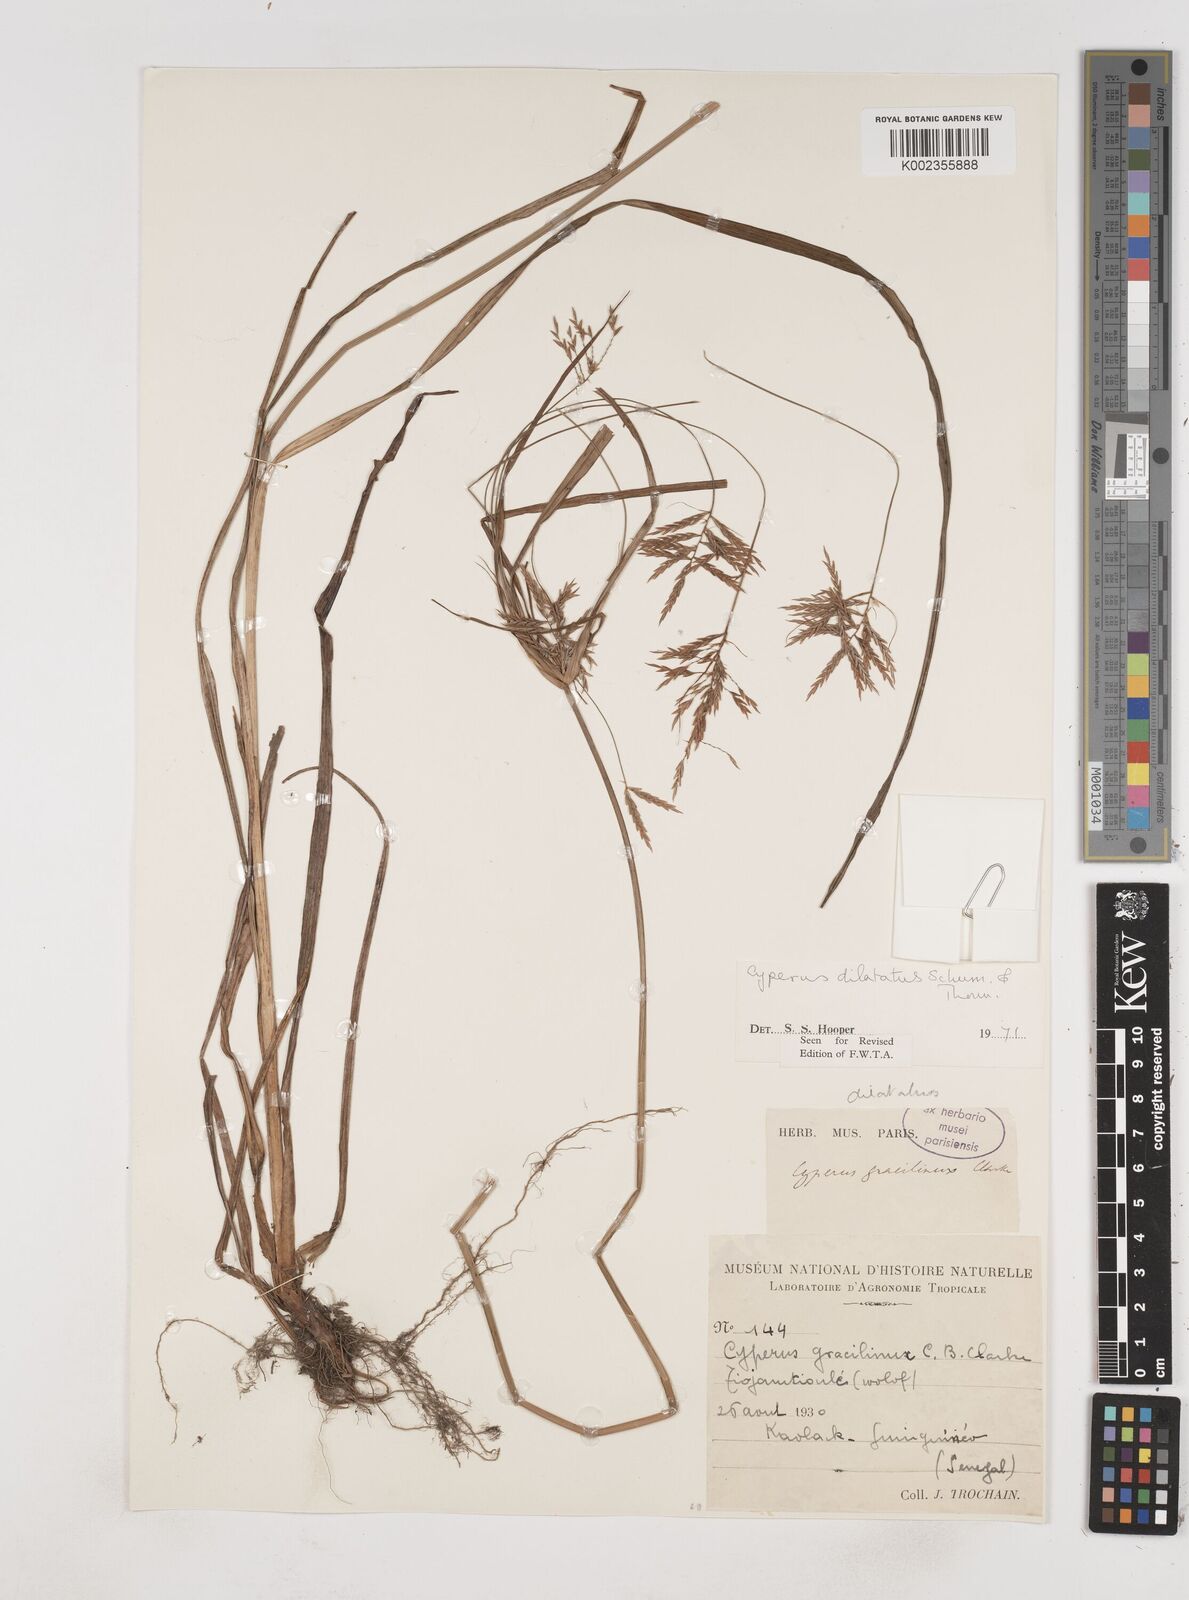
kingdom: Plantae
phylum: Tracheophyta
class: Liliopsida
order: Poales
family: Cyperaceae
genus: Cyperus
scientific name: Cyperus dilatatus
